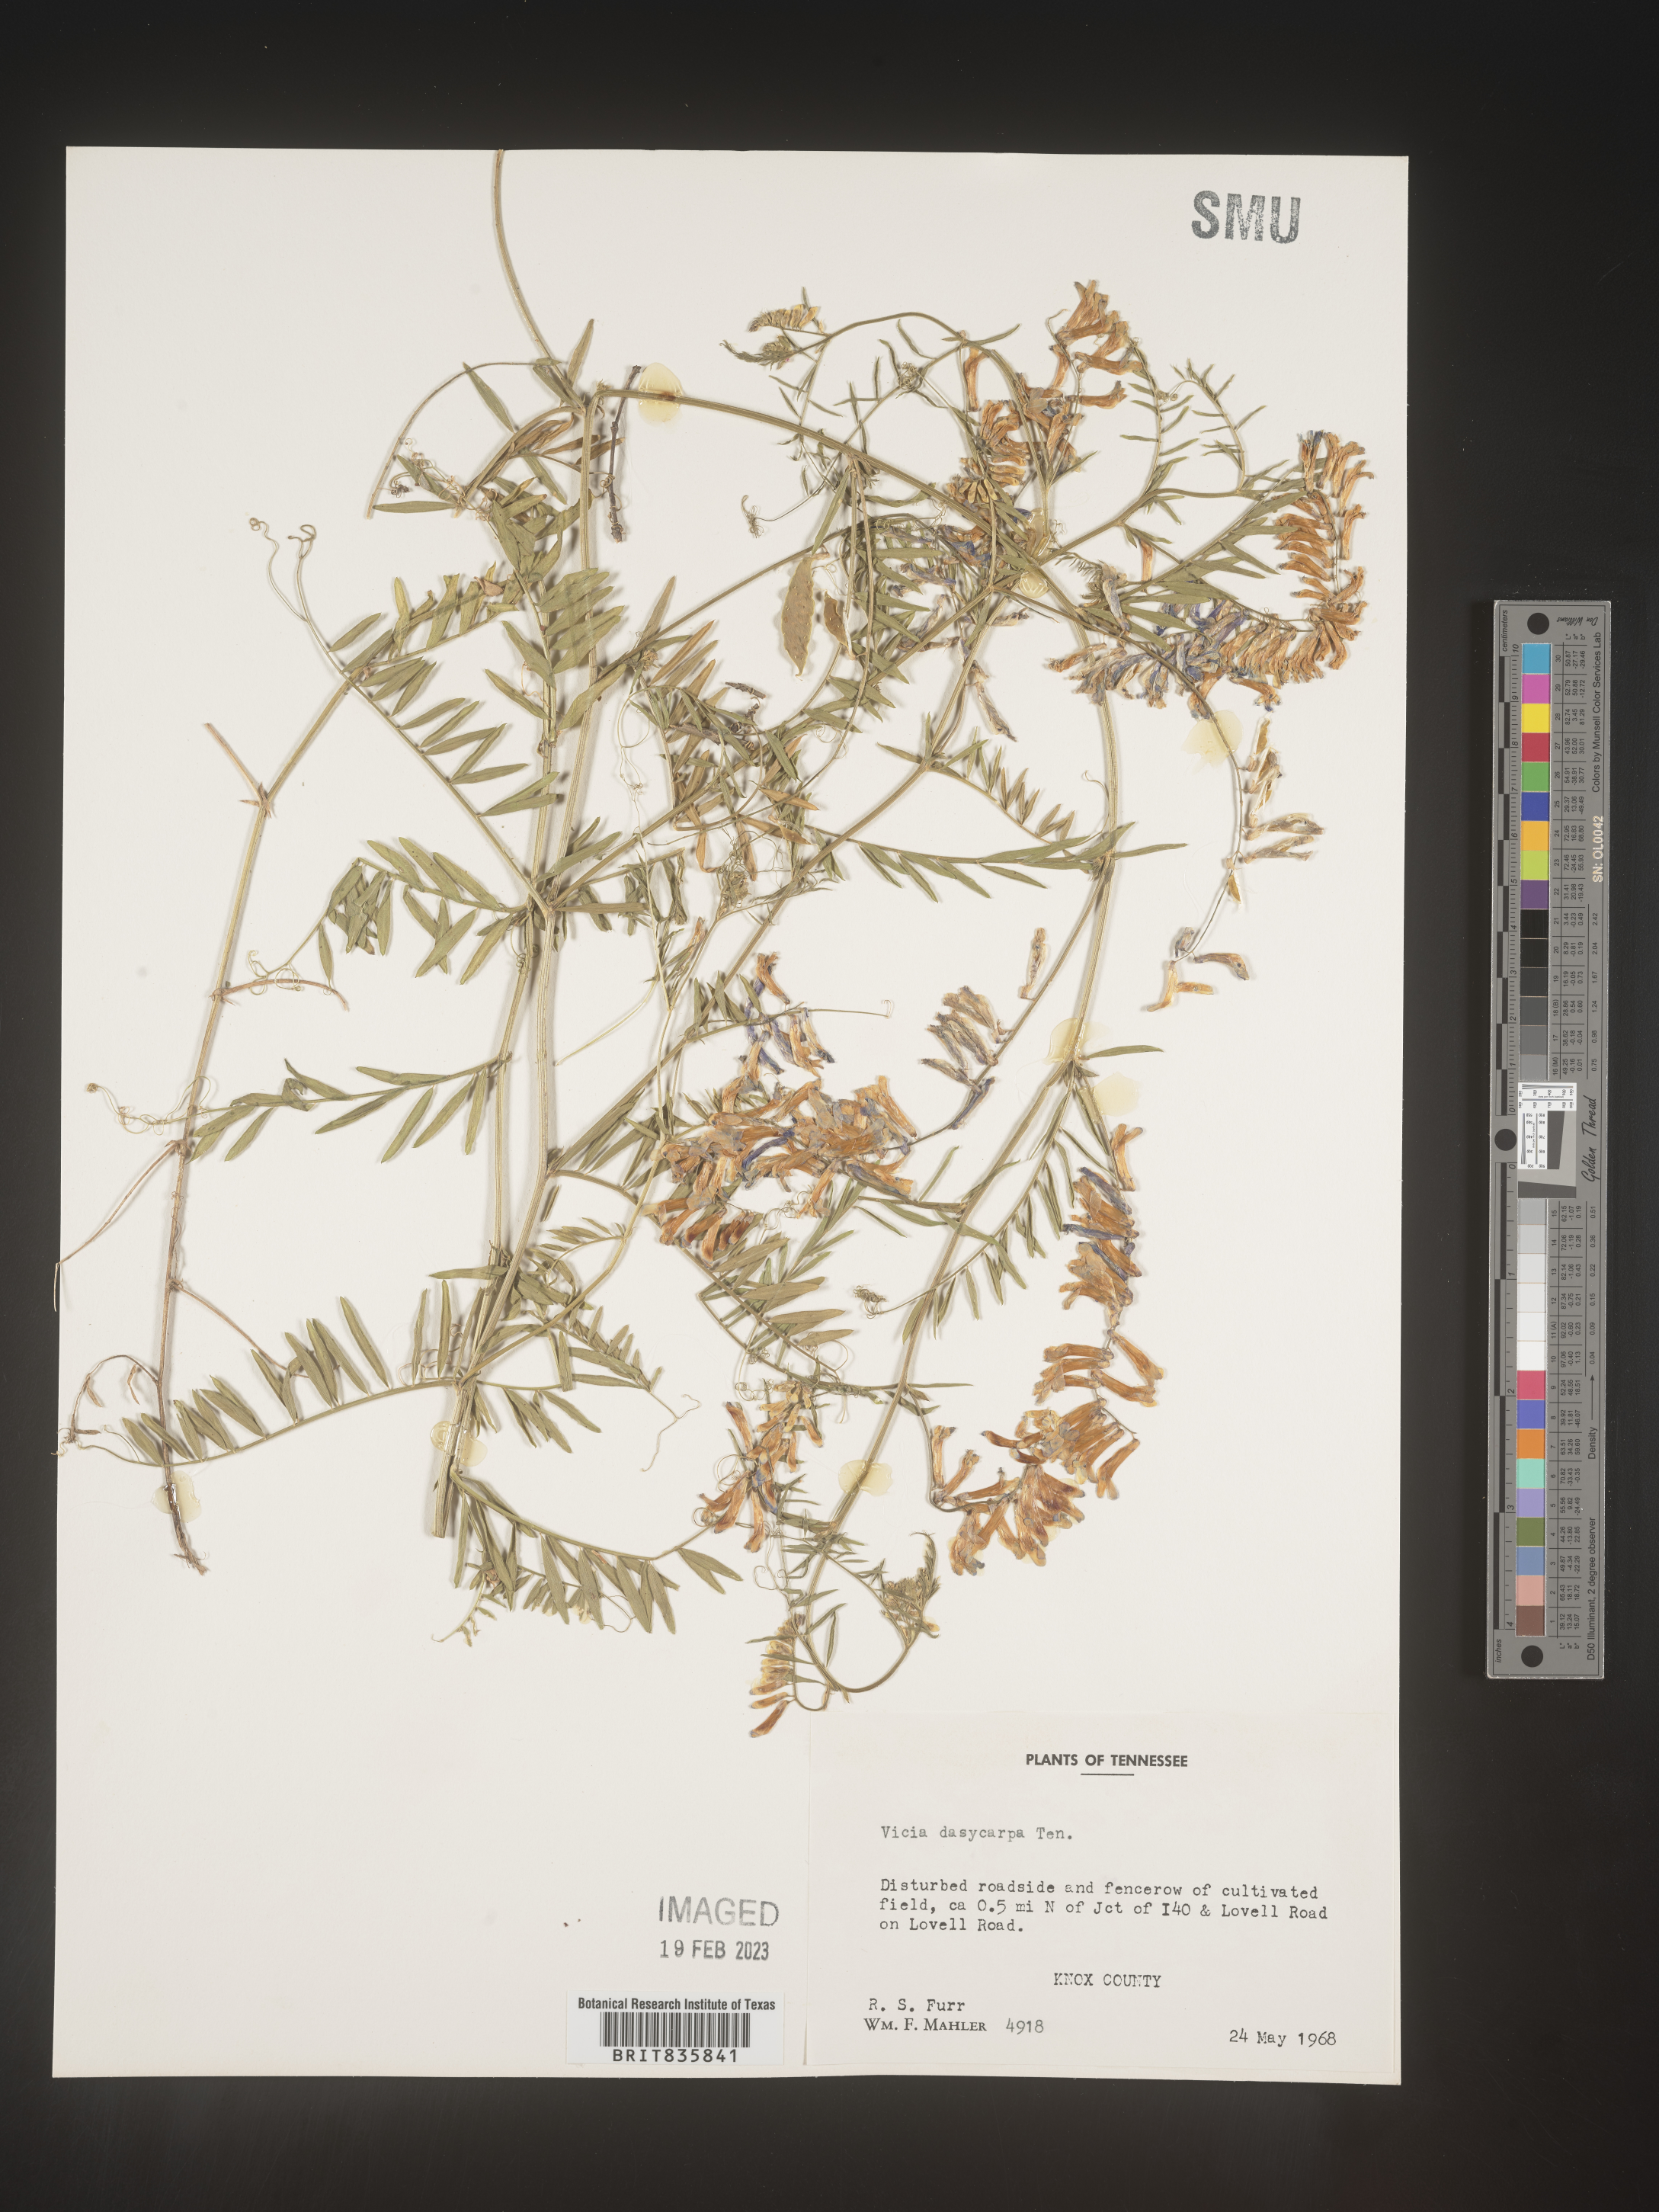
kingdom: Plantae
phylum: Tracheophyta
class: Magnoliopsida
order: Fabales
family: Fabaceae
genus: Vicia
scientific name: Vicia villosa
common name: Fodder vetch
